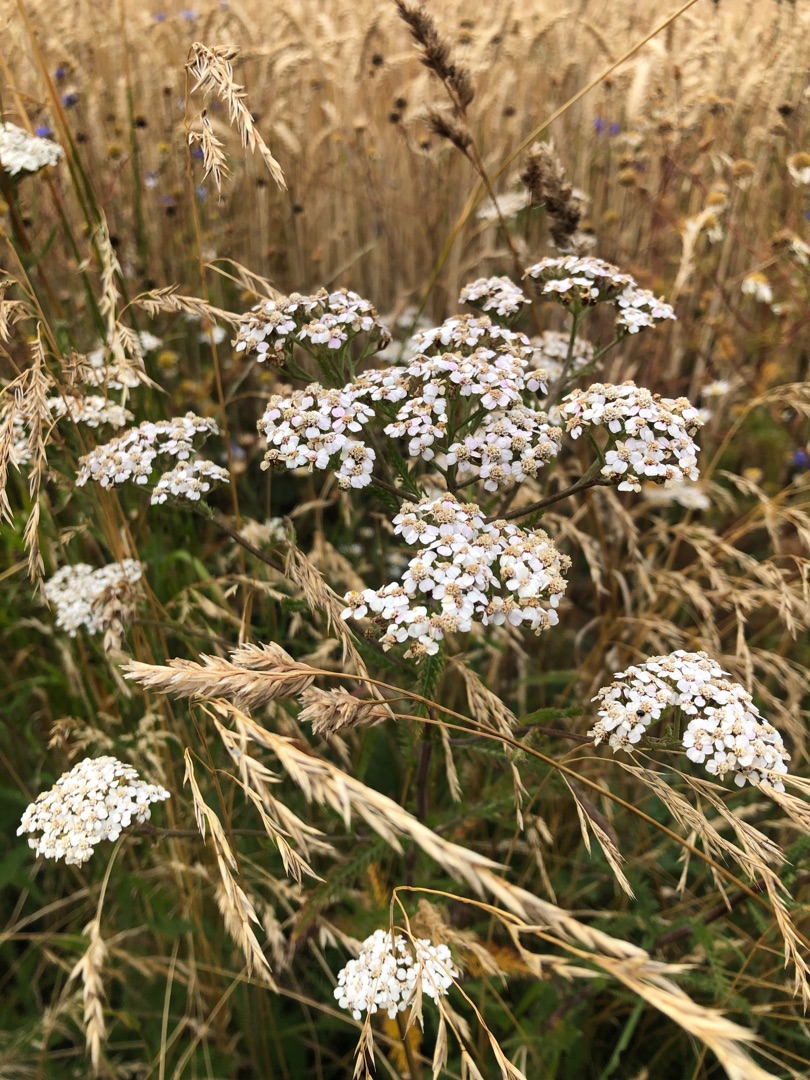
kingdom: Plantae
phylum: Tracheophyta
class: Magnoliopsida
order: Asterales
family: Asteraceae
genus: Achillea
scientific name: Achillea millefolium
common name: Almindelig røllike
